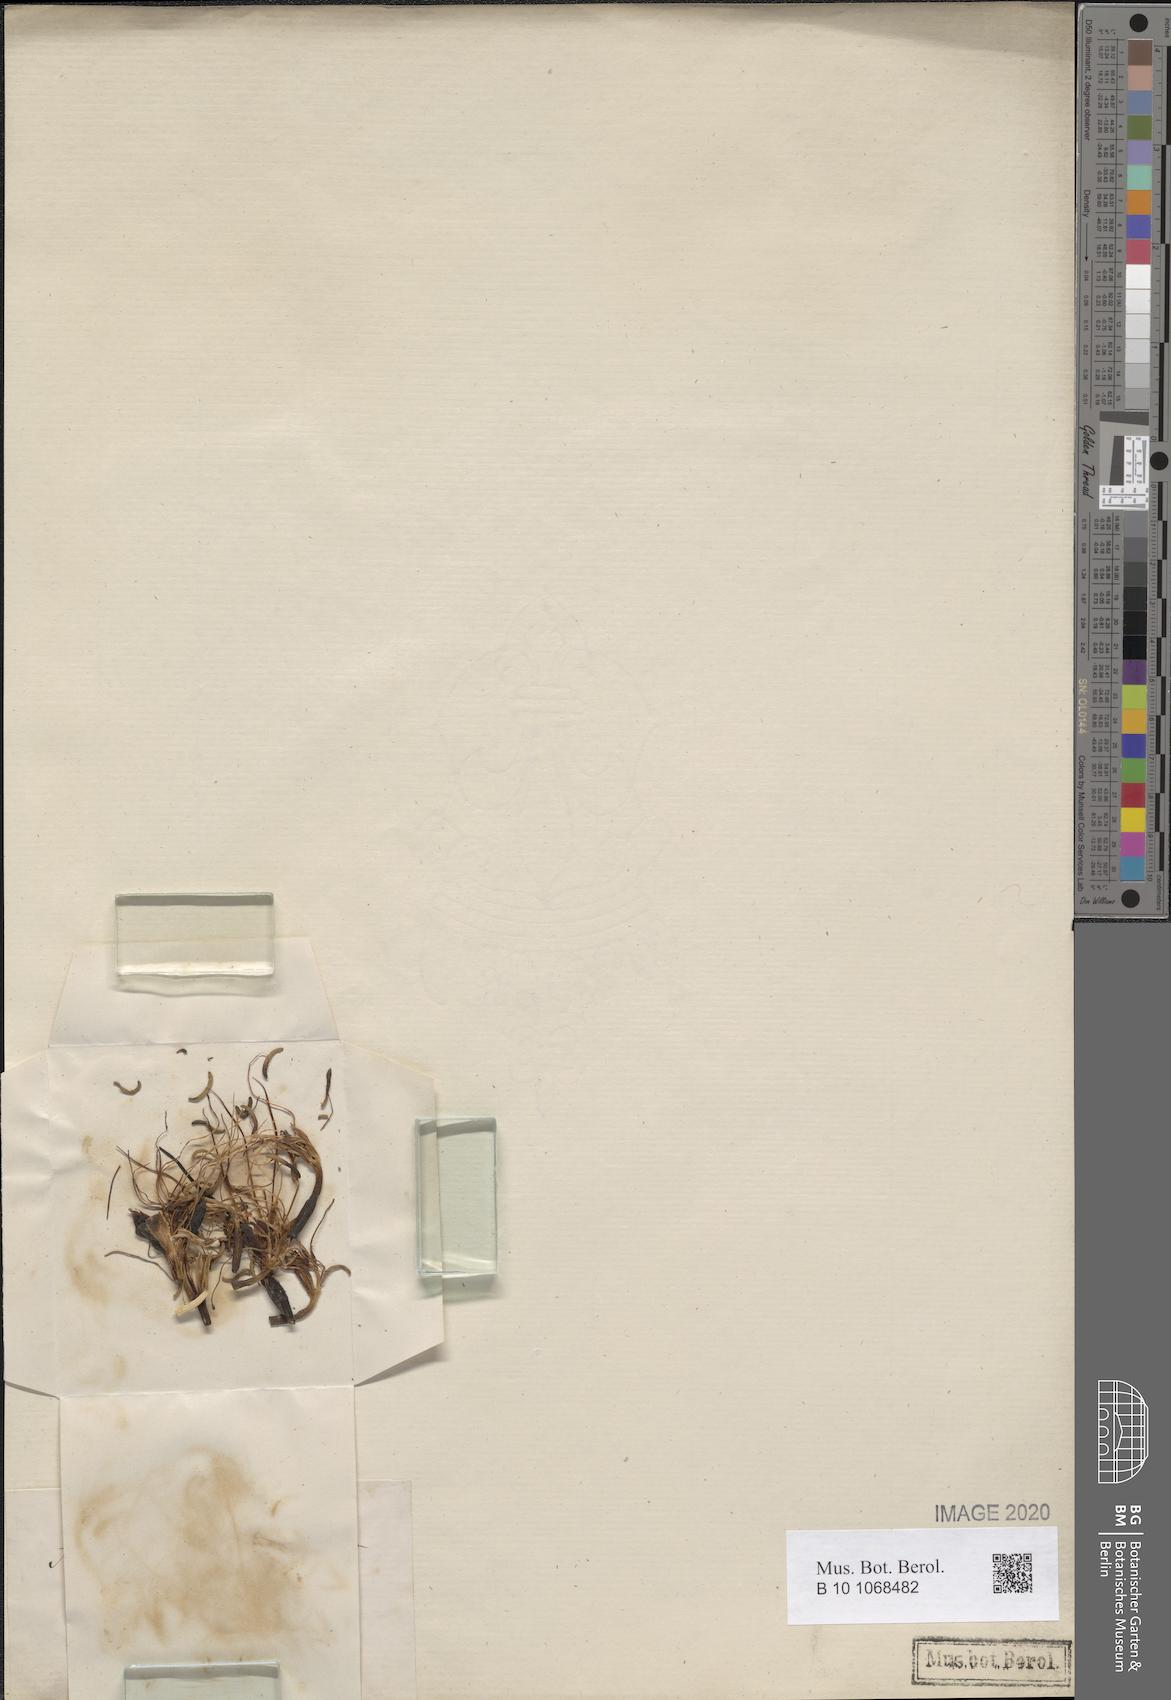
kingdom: Plantae
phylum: Tracheophyta
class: Liliopsida
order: Asparagales
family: Asparagaceae
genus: Agave
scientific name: Agave dealbata
